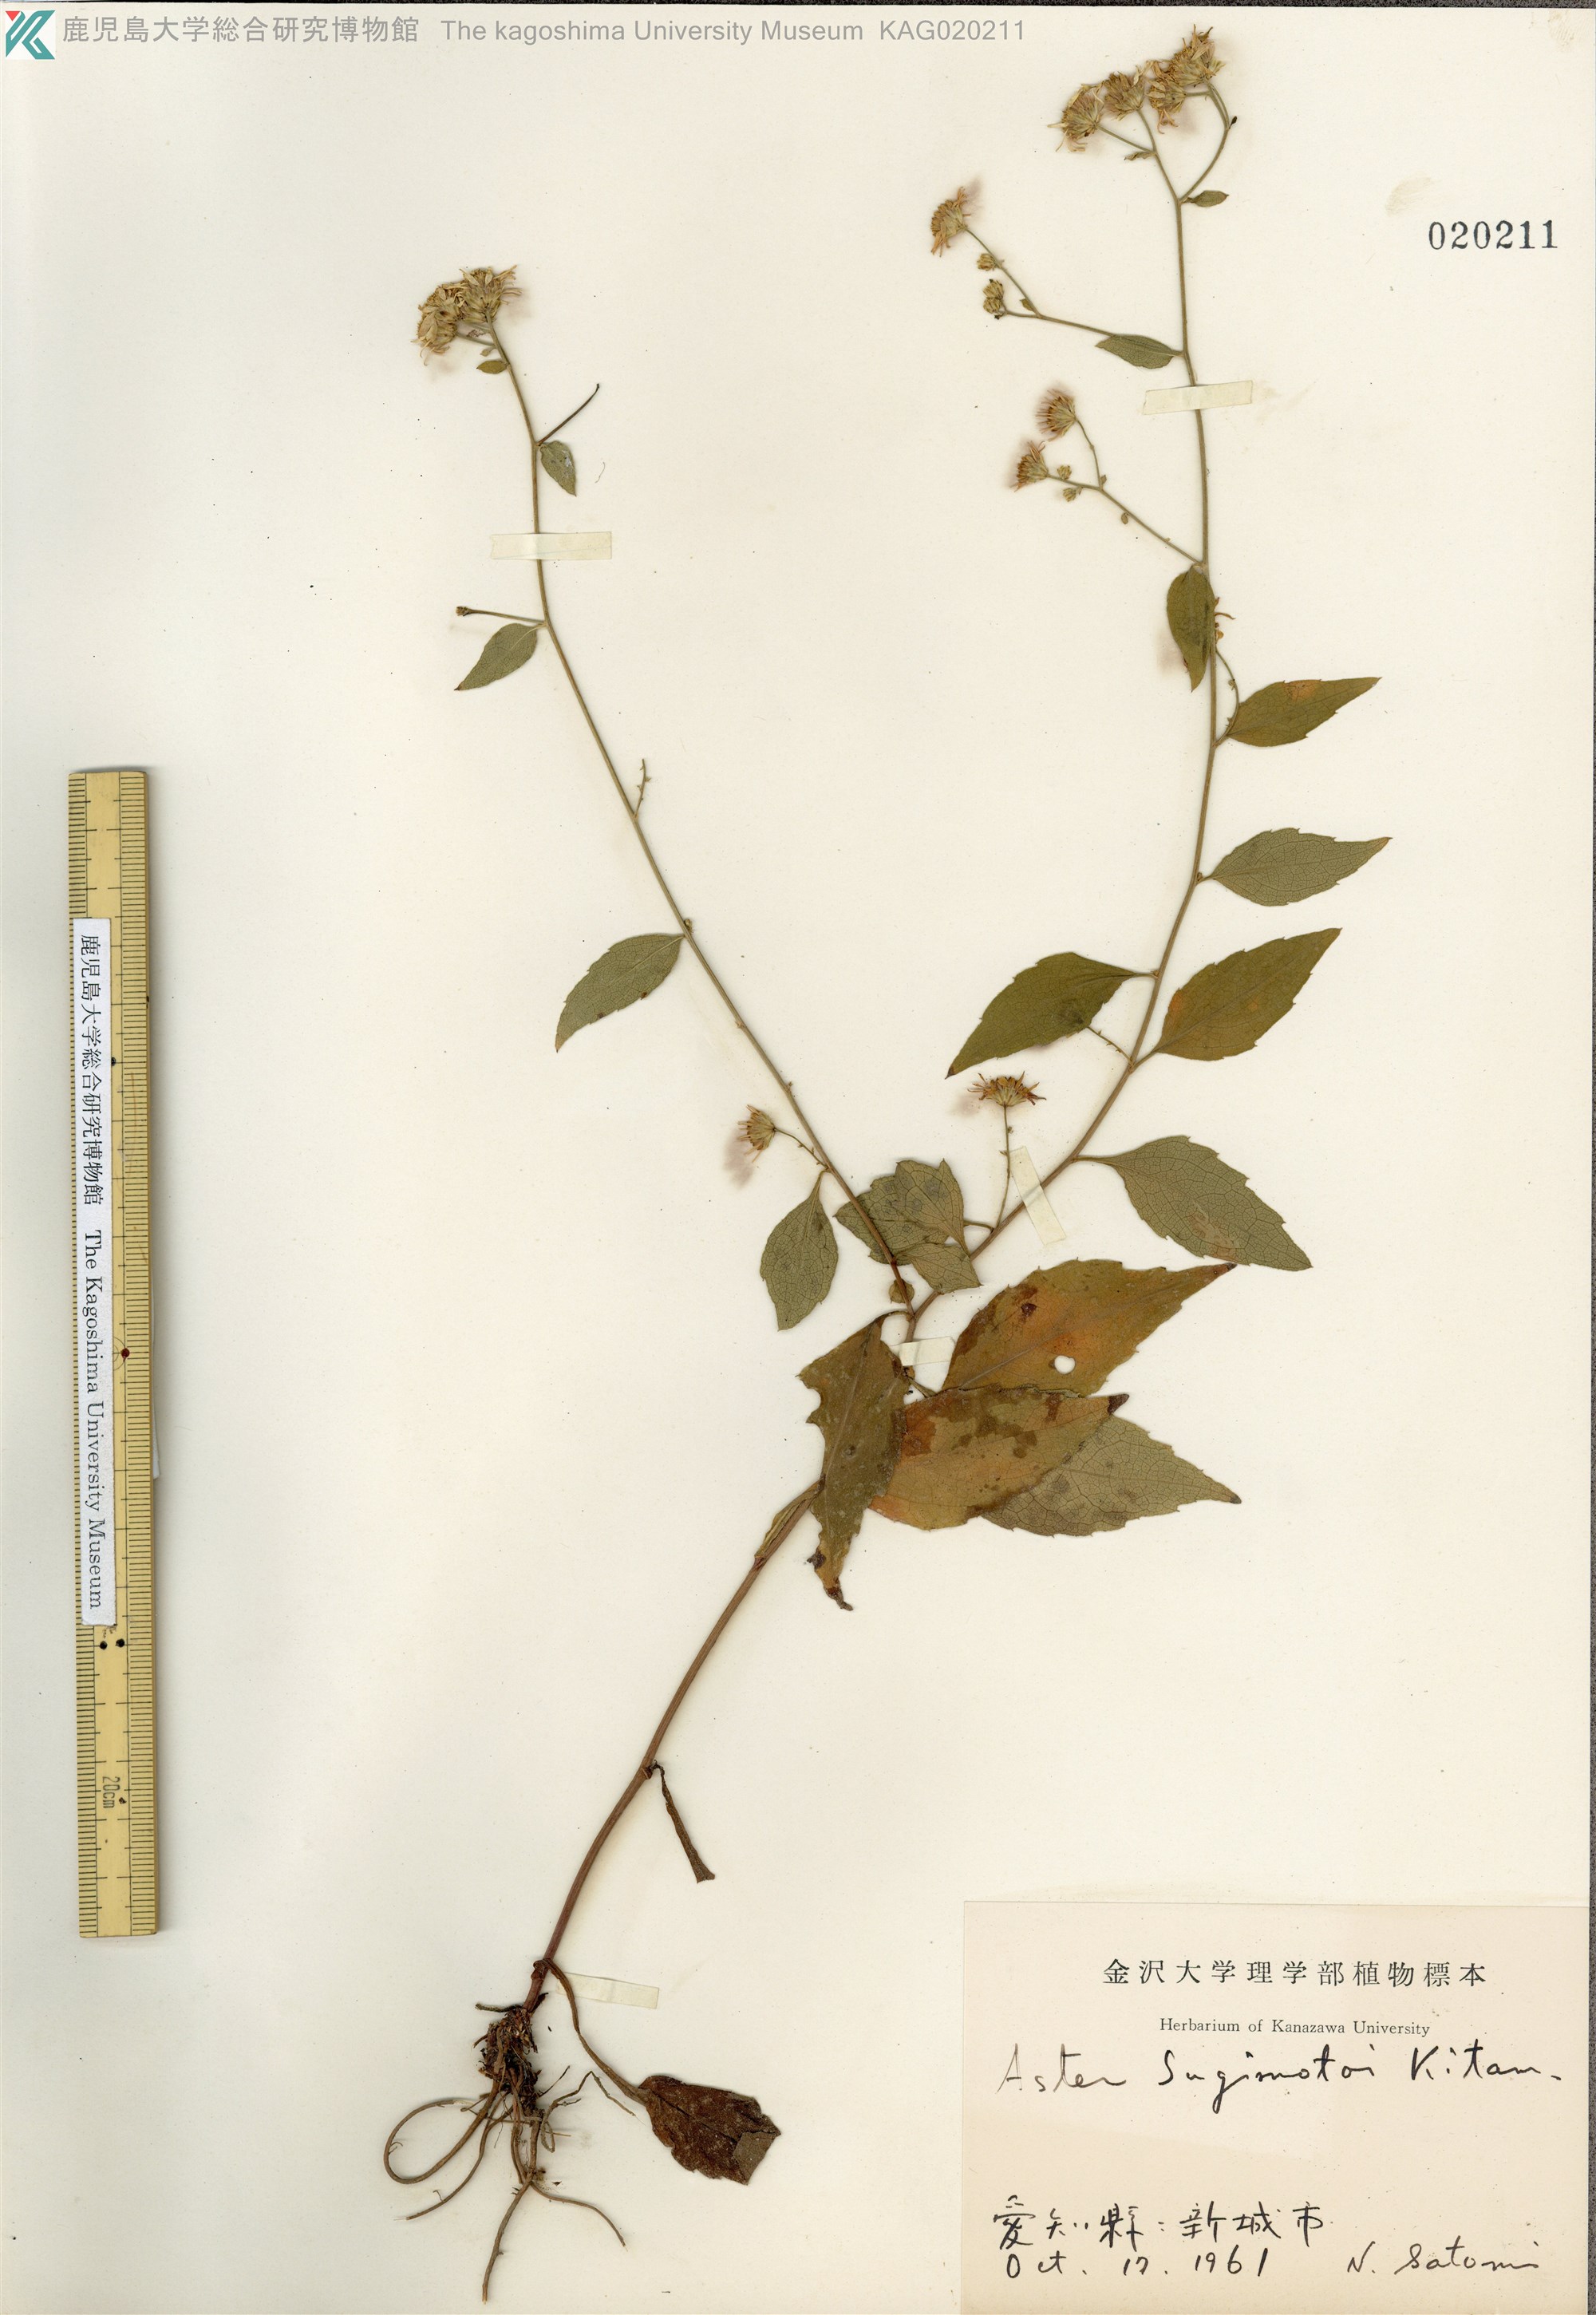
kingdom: Plantae
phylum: Tracheophyta
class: Magnoliopsida
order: Asterales
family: Asteraceae
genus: Aster
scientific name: Aster sugimotoi
